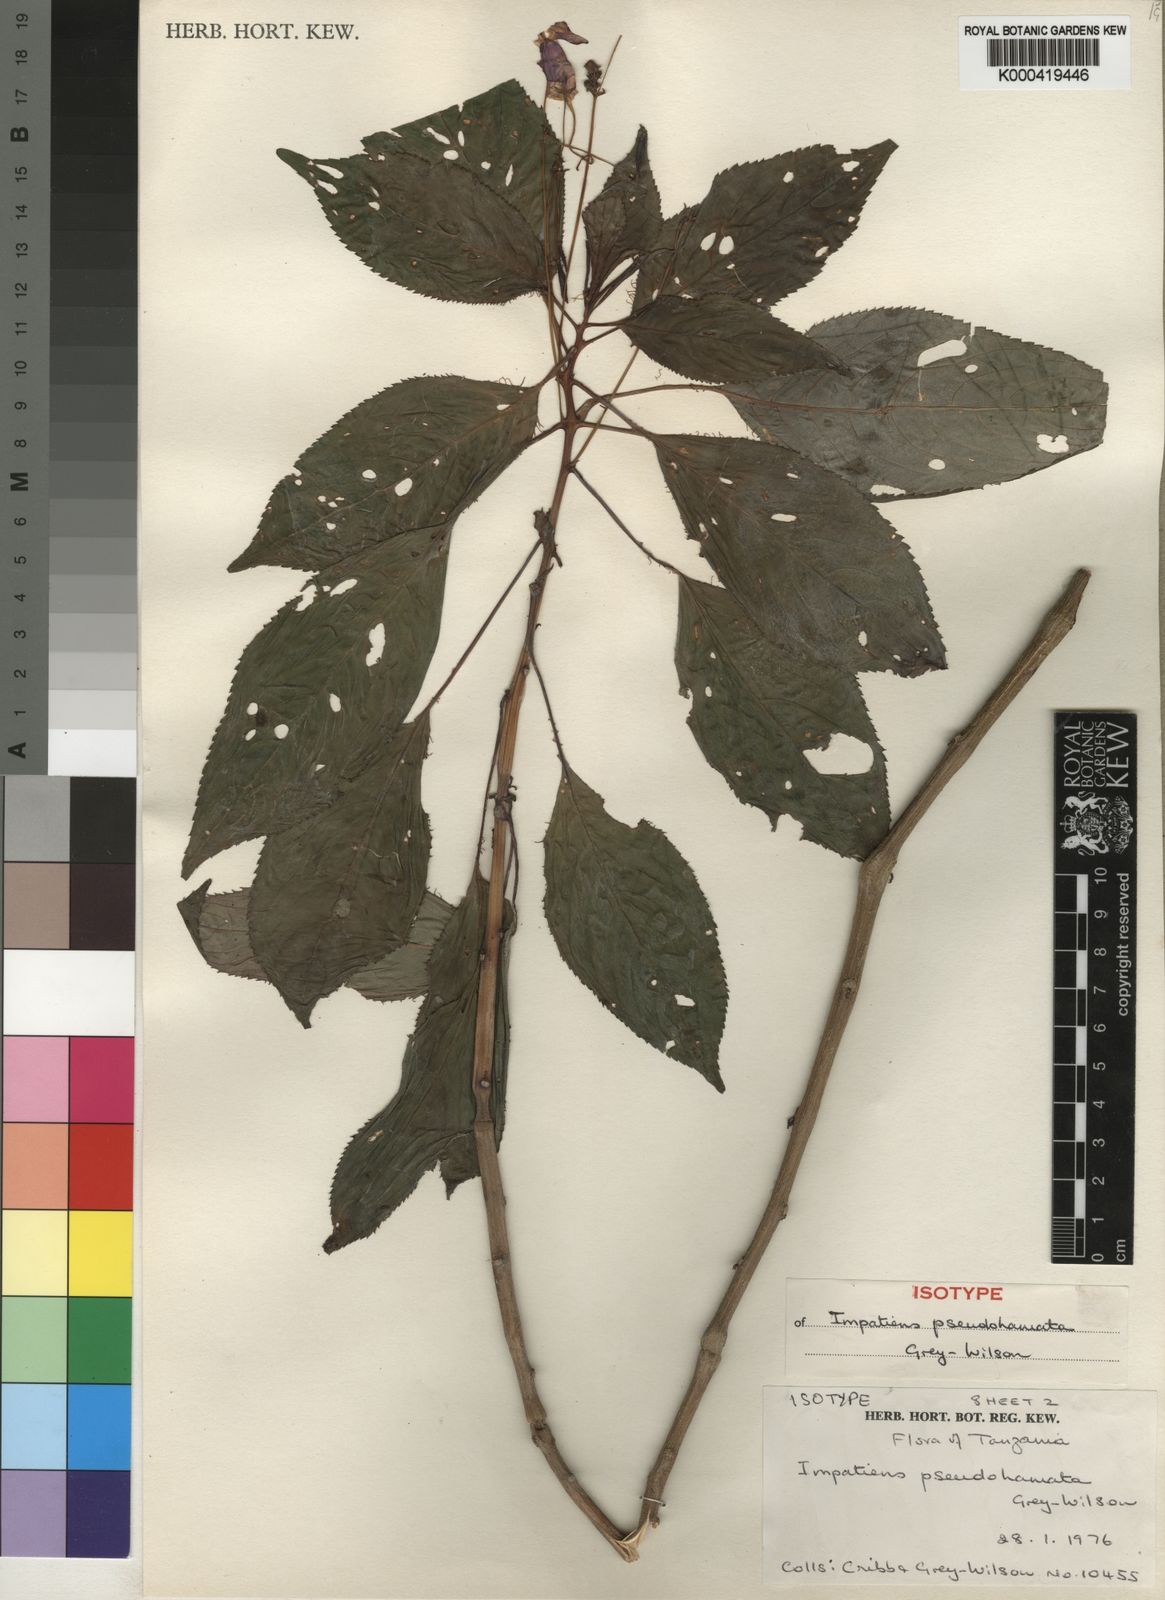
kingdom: Plantae
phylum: Tracheophyta
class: Magnoliopsida
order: Ericales
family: Balsaminaceae
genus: Impatiens
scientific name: Impatiens pseudohamata
